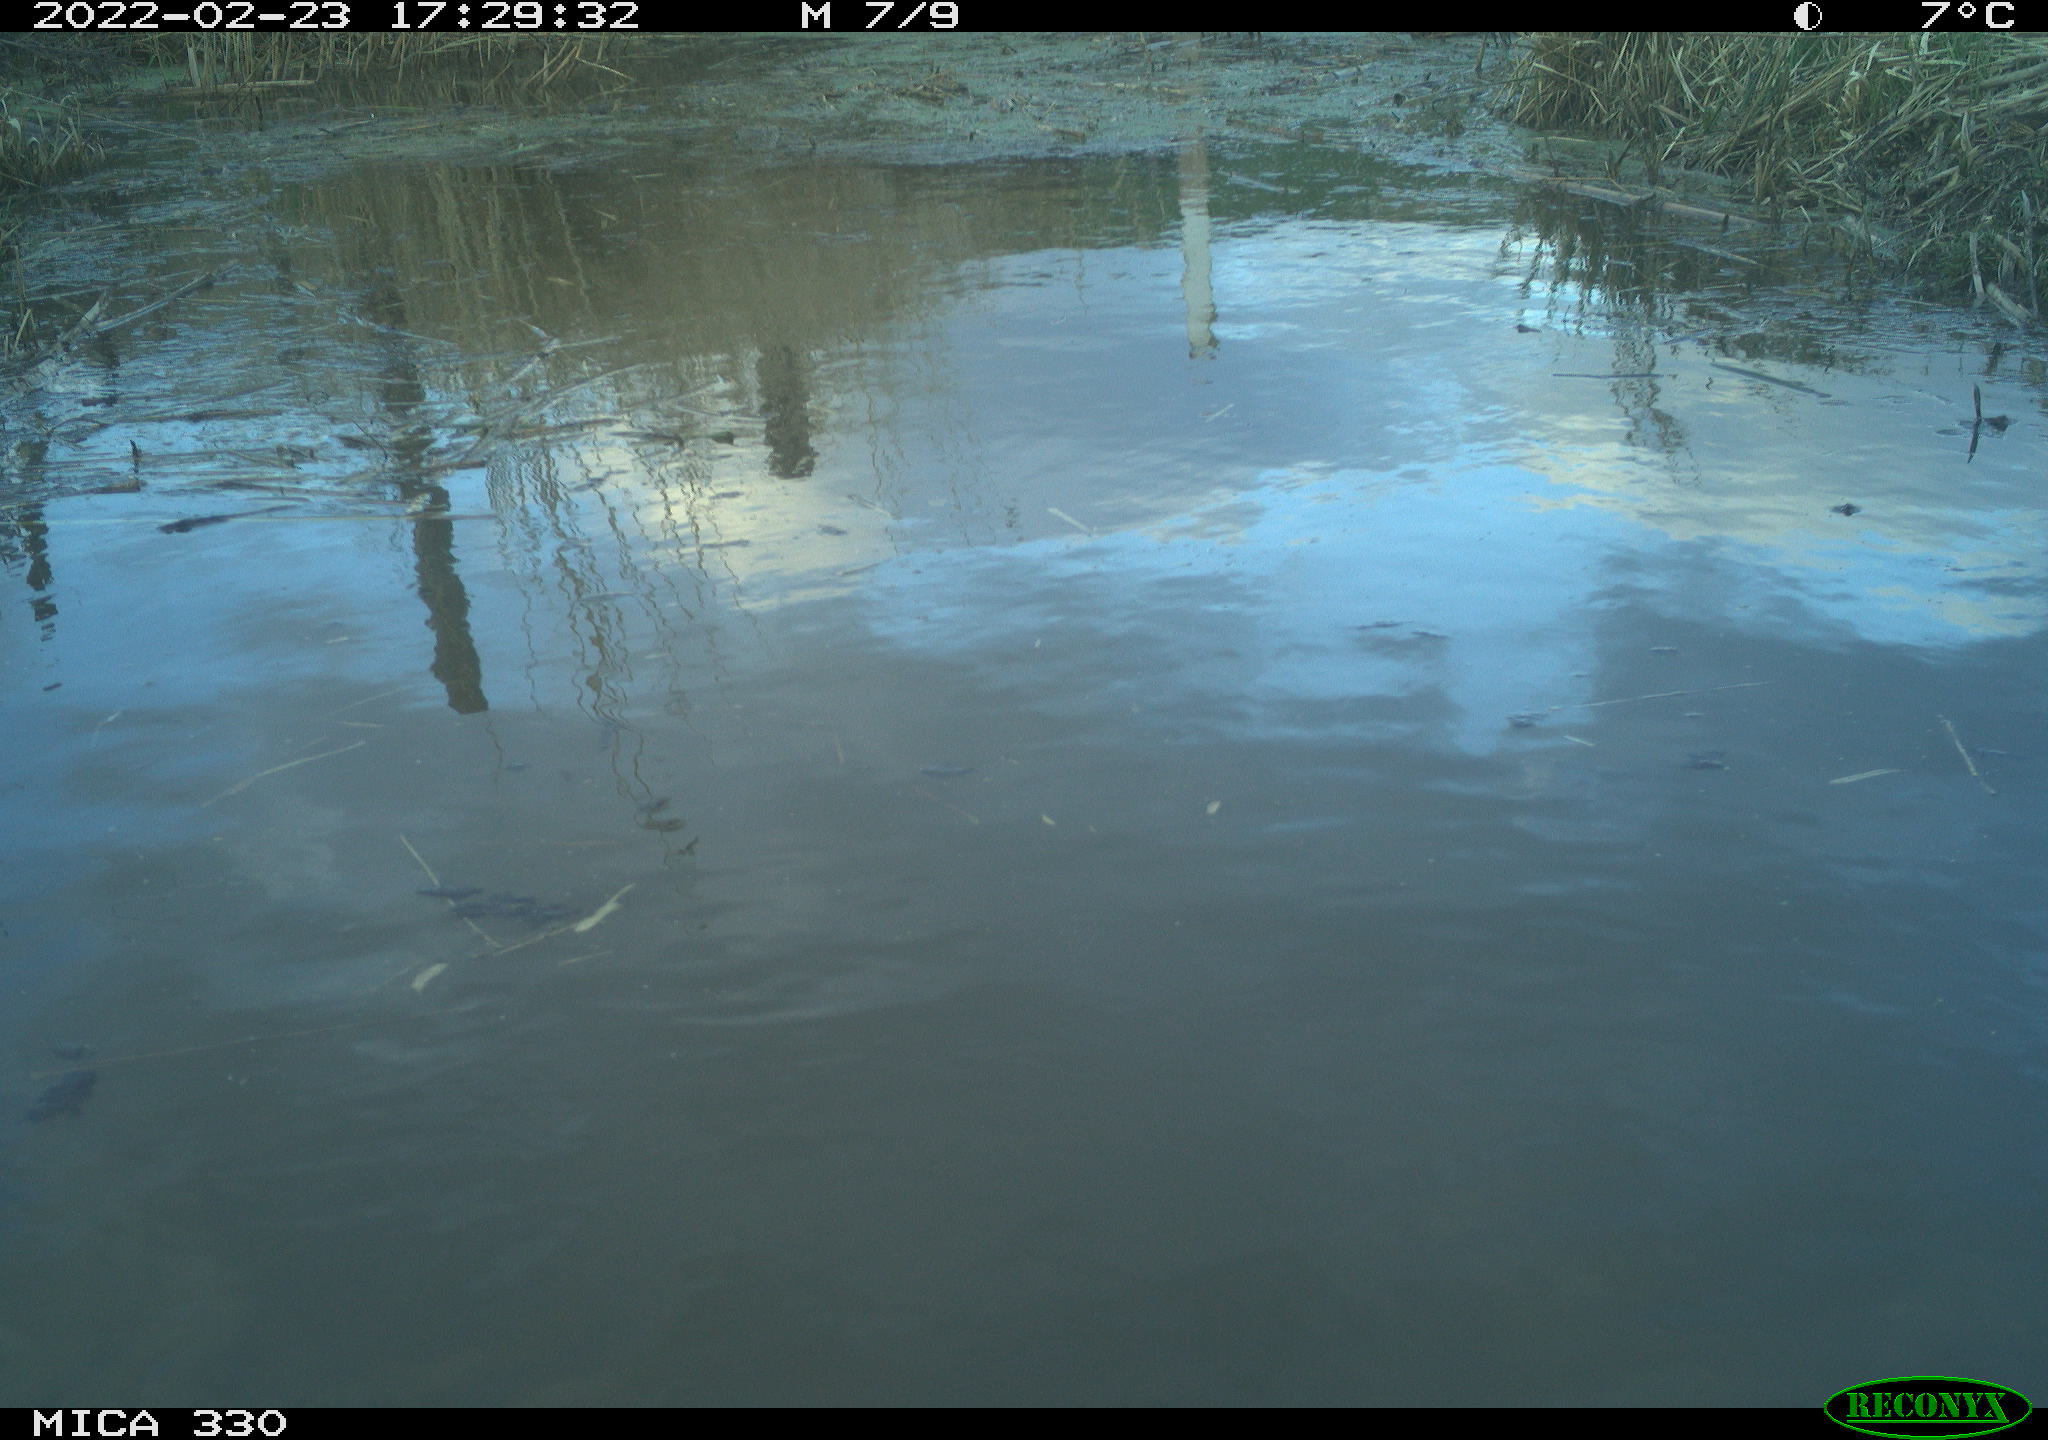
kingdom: Animalia
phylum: Chordata
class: Aves
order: Gruiformes
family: Rallidae
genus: Fulica
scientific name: Fulica atra
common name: Eurasian coot
